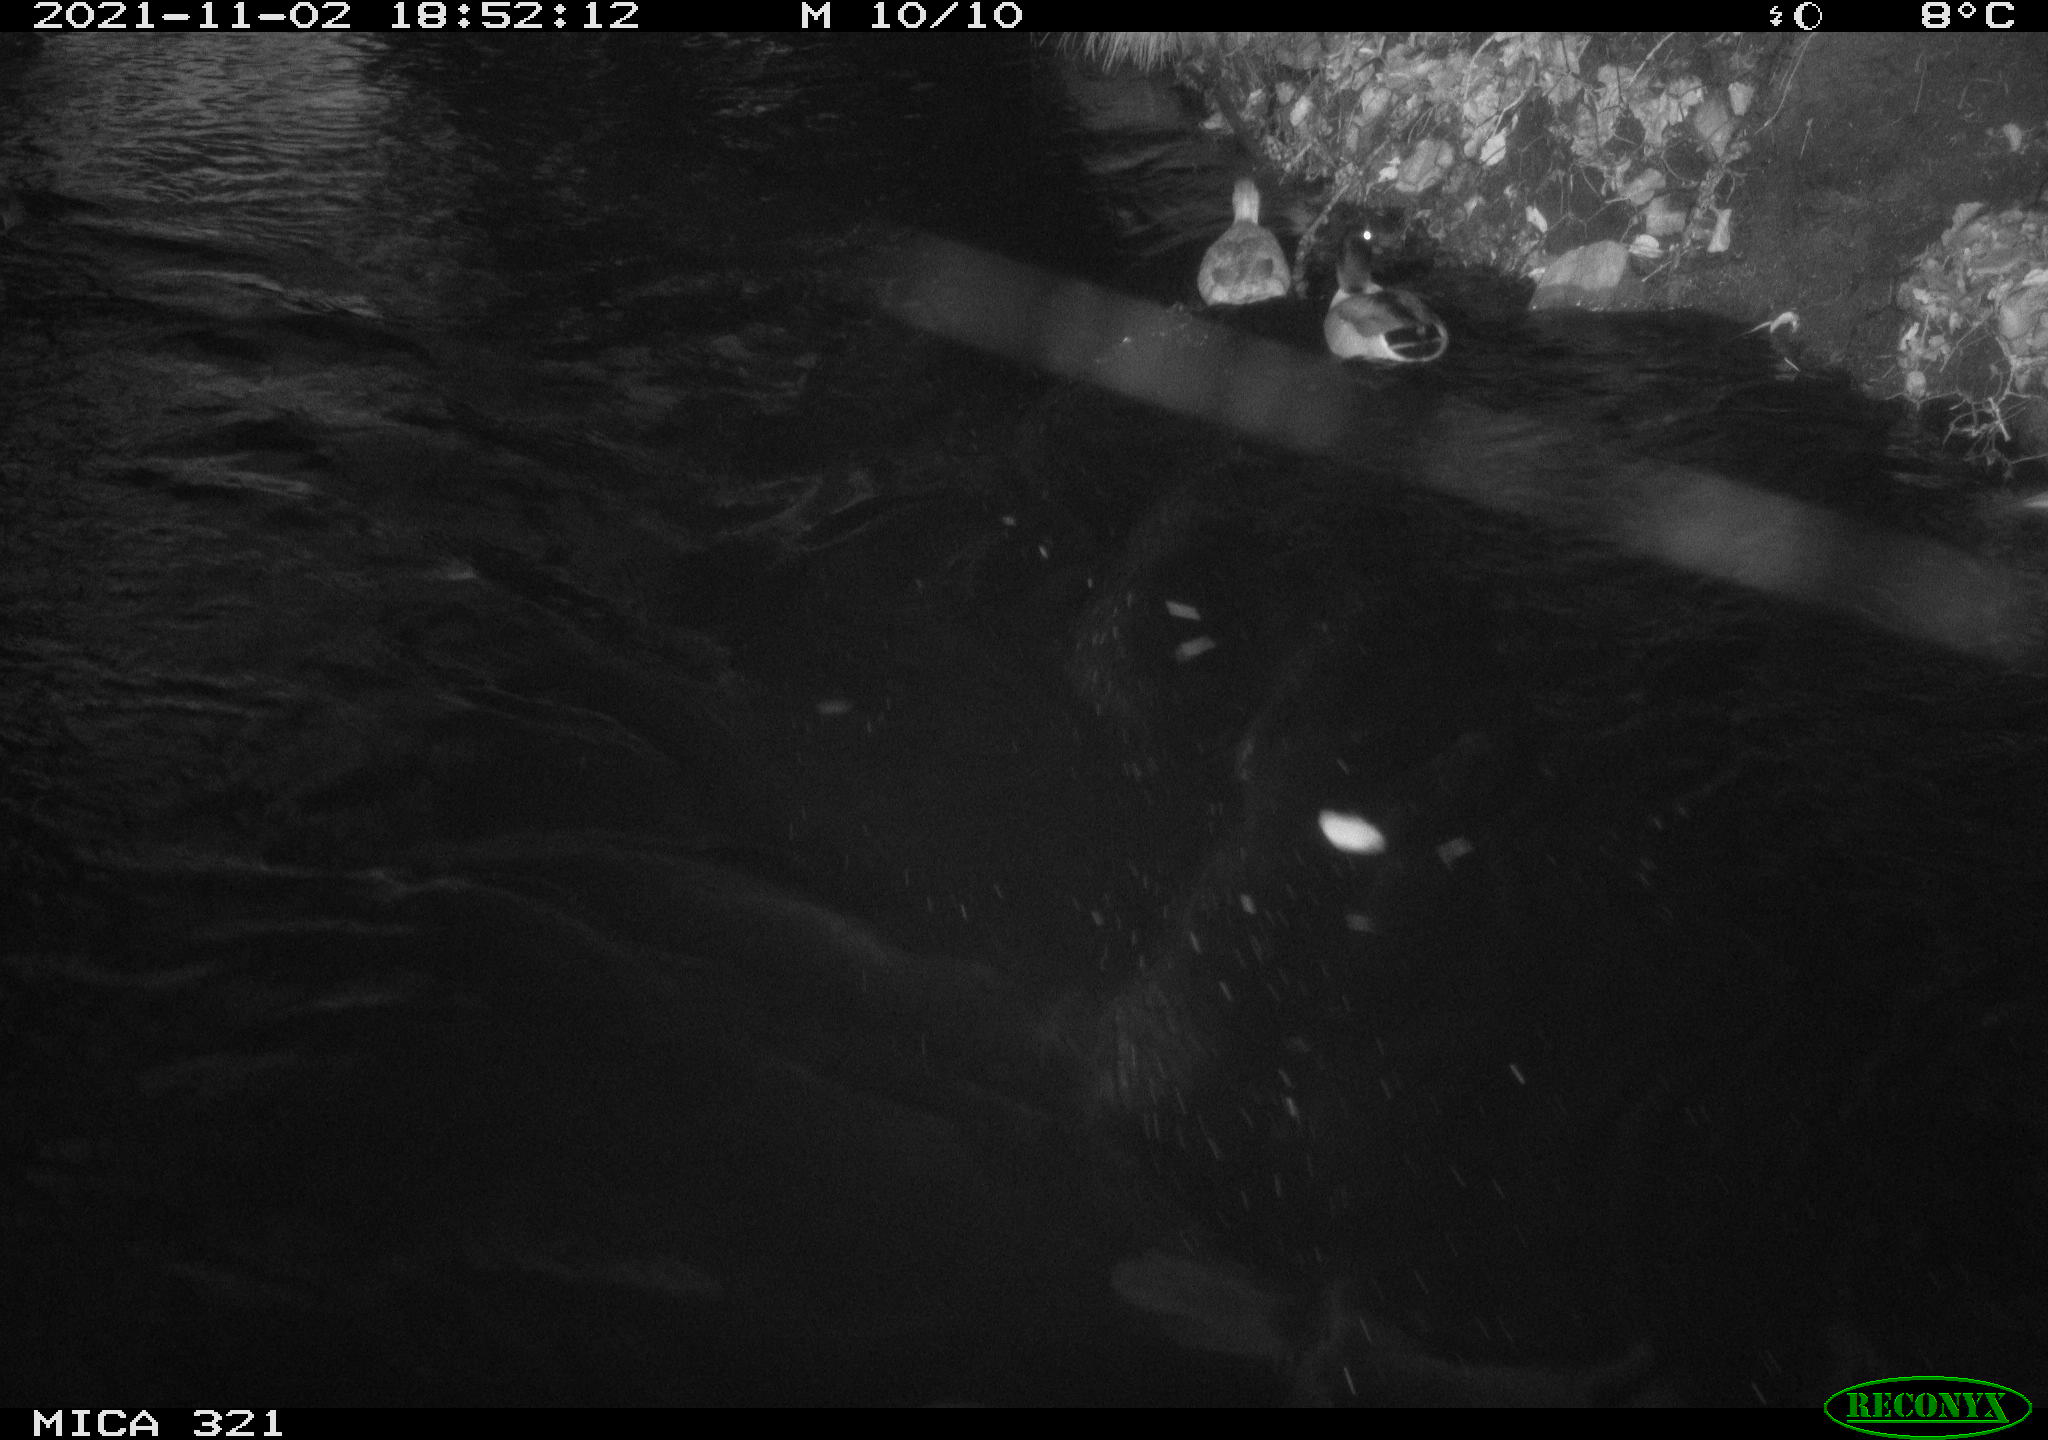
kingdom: Animalia
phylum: Chordata
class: Aves
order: Anseriformes
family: Anatidae
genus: Anas
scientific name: Anas platyrhynchos
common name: Mallard
